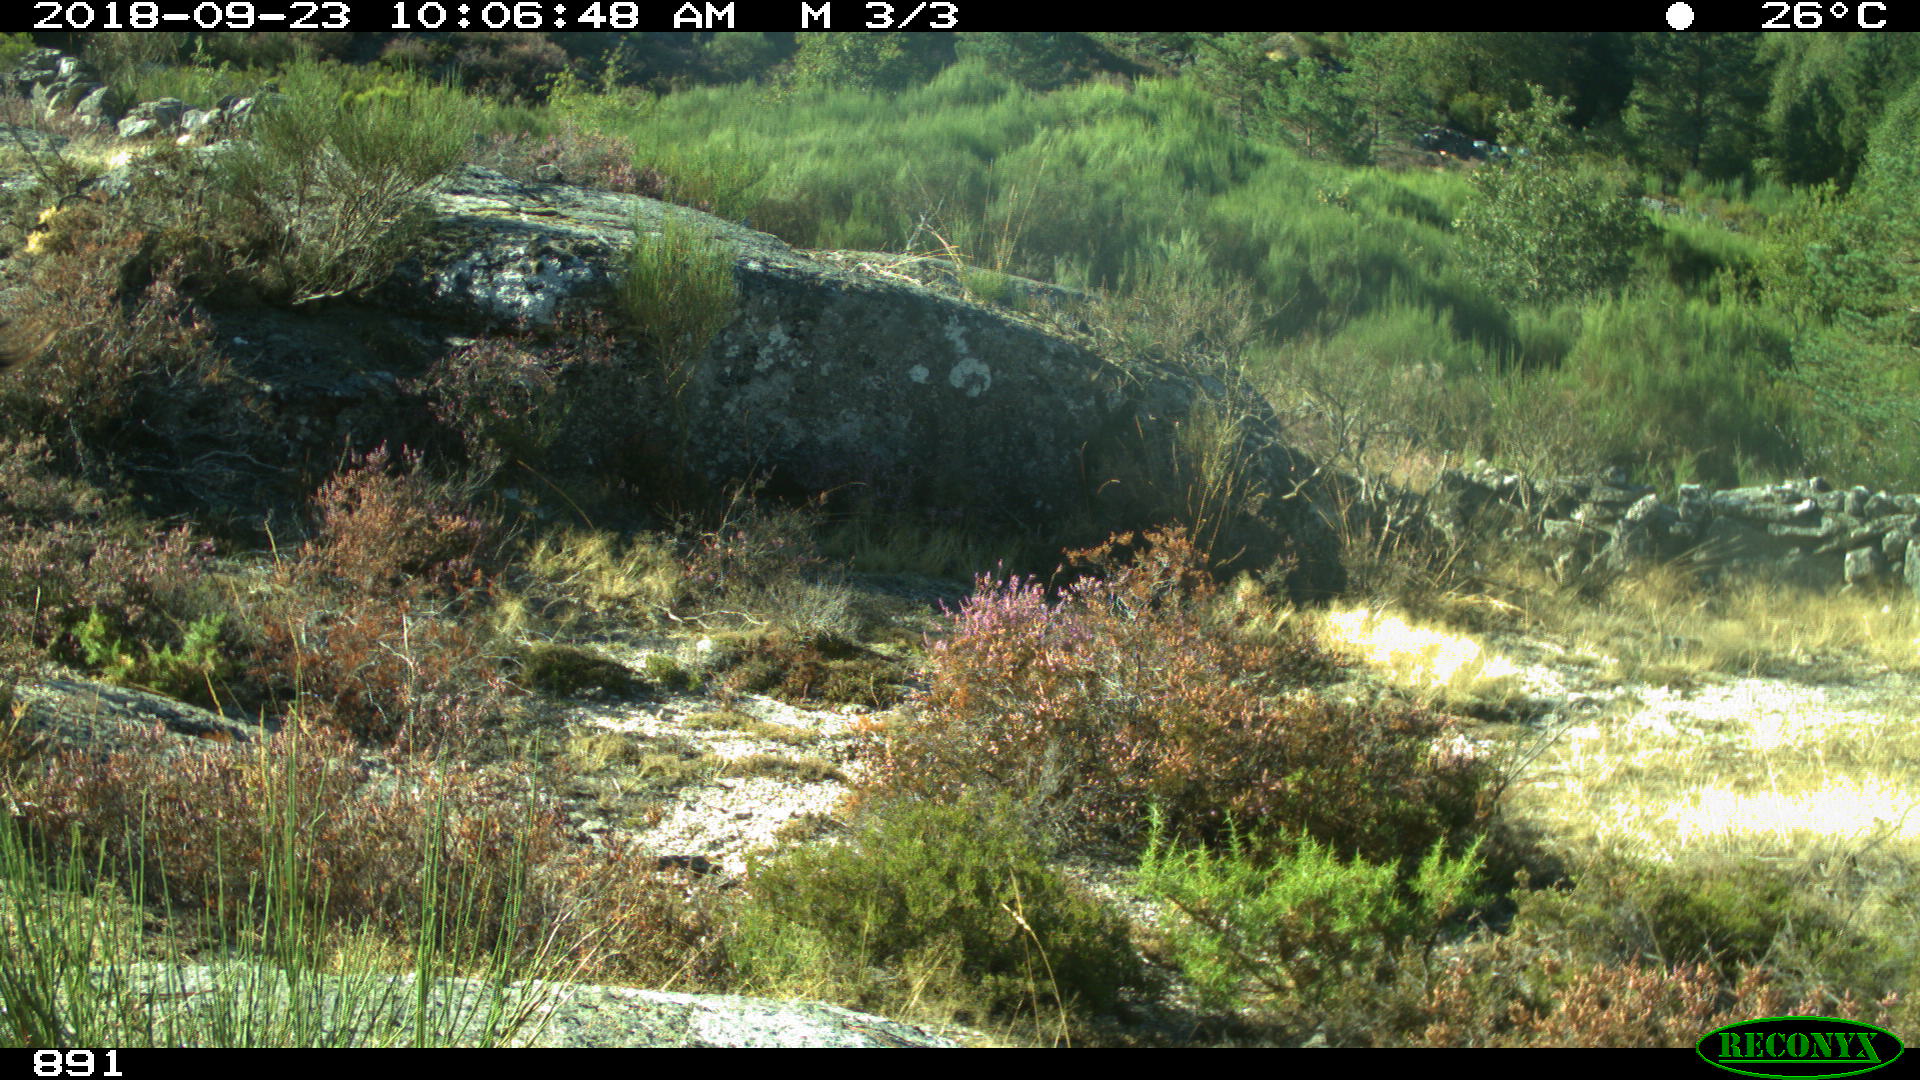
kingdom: Animalia
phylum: Chordata
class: Mammalia
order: Artiodactyla
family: Bovidae
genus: Capra
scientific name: Capra hircus
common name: Domestic goat
